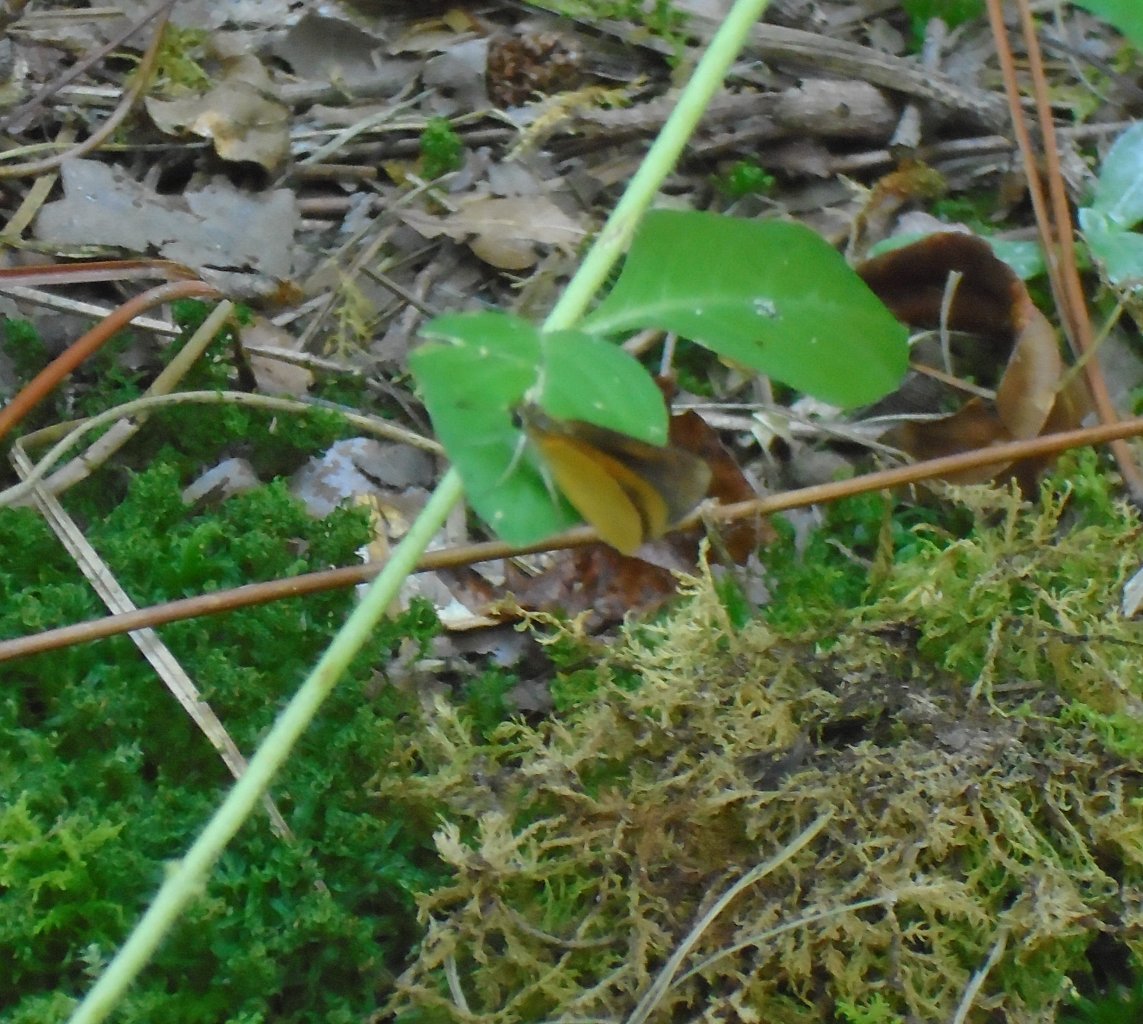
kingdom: Animalia
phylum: Arthropoda
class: Insecta
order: Lepidoptera
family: Hesperiidae
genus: Ancyloxypha
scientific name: Ancyloxypha numitor
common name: Least Skipper
